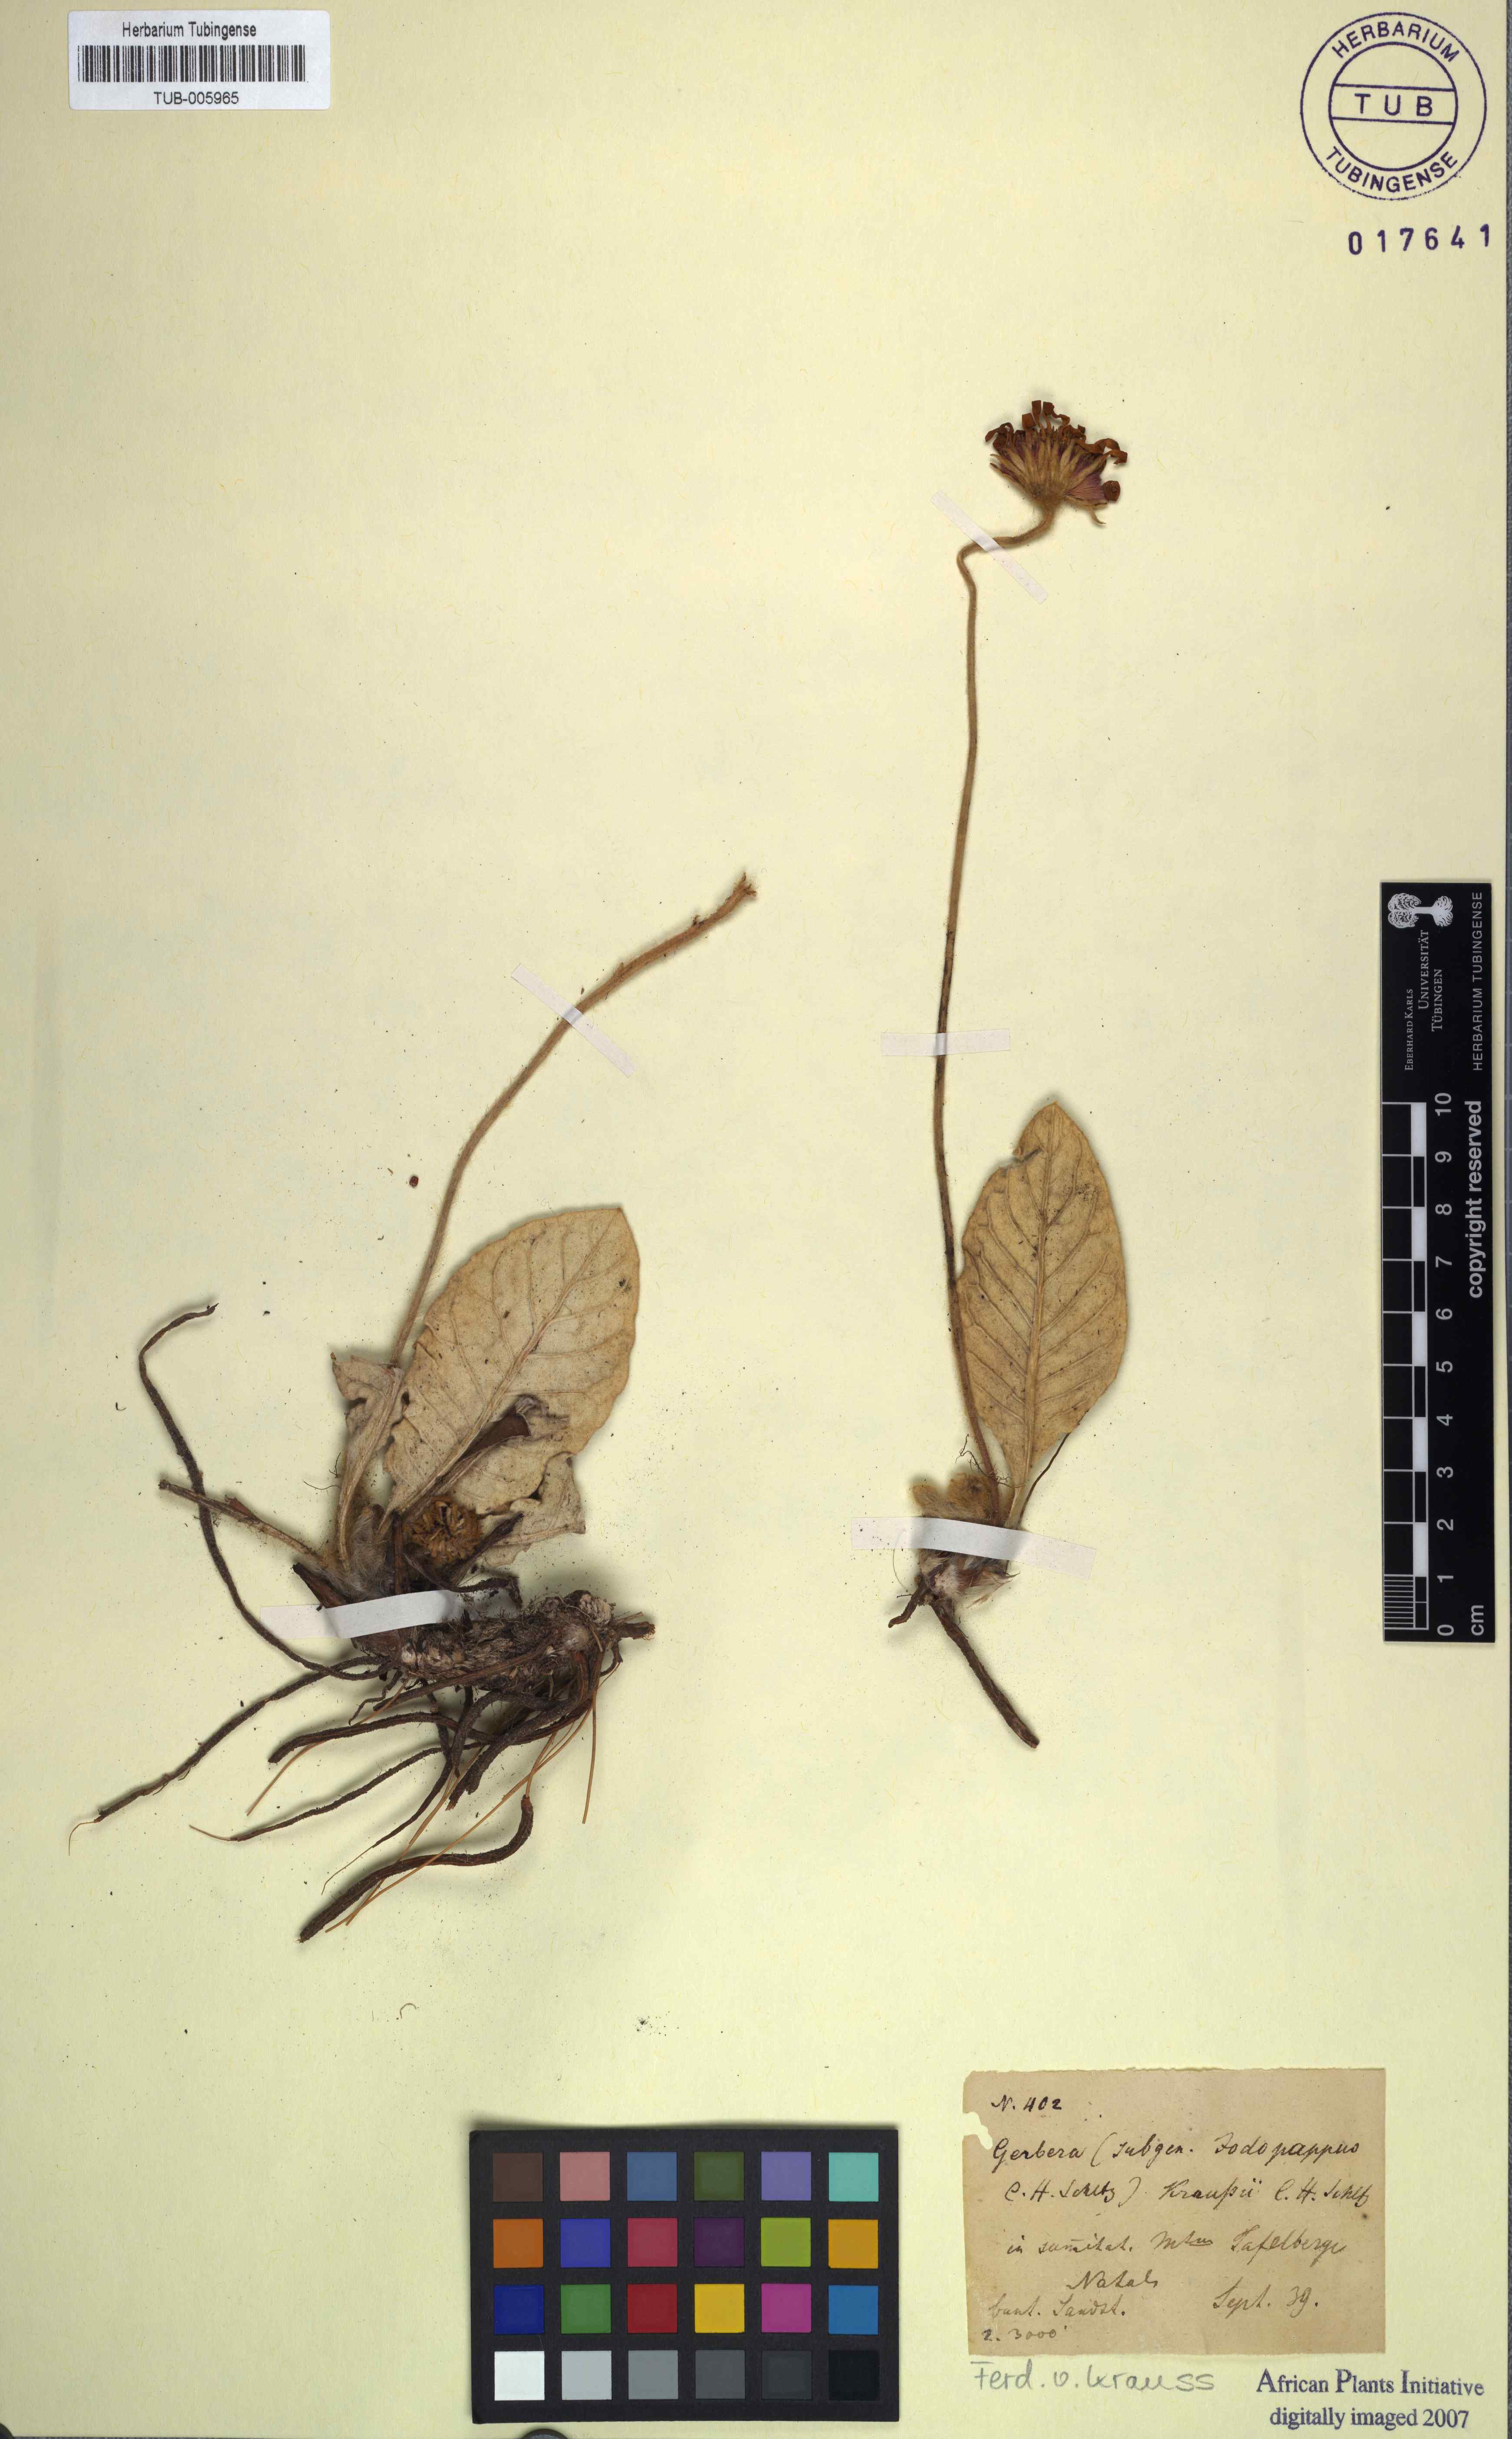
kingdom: Plantae
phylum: Tracheophyta
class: Magnoliopsida
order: Asterales
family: Asteraceae
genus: Gerbera
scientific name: Gerbera ambigua
